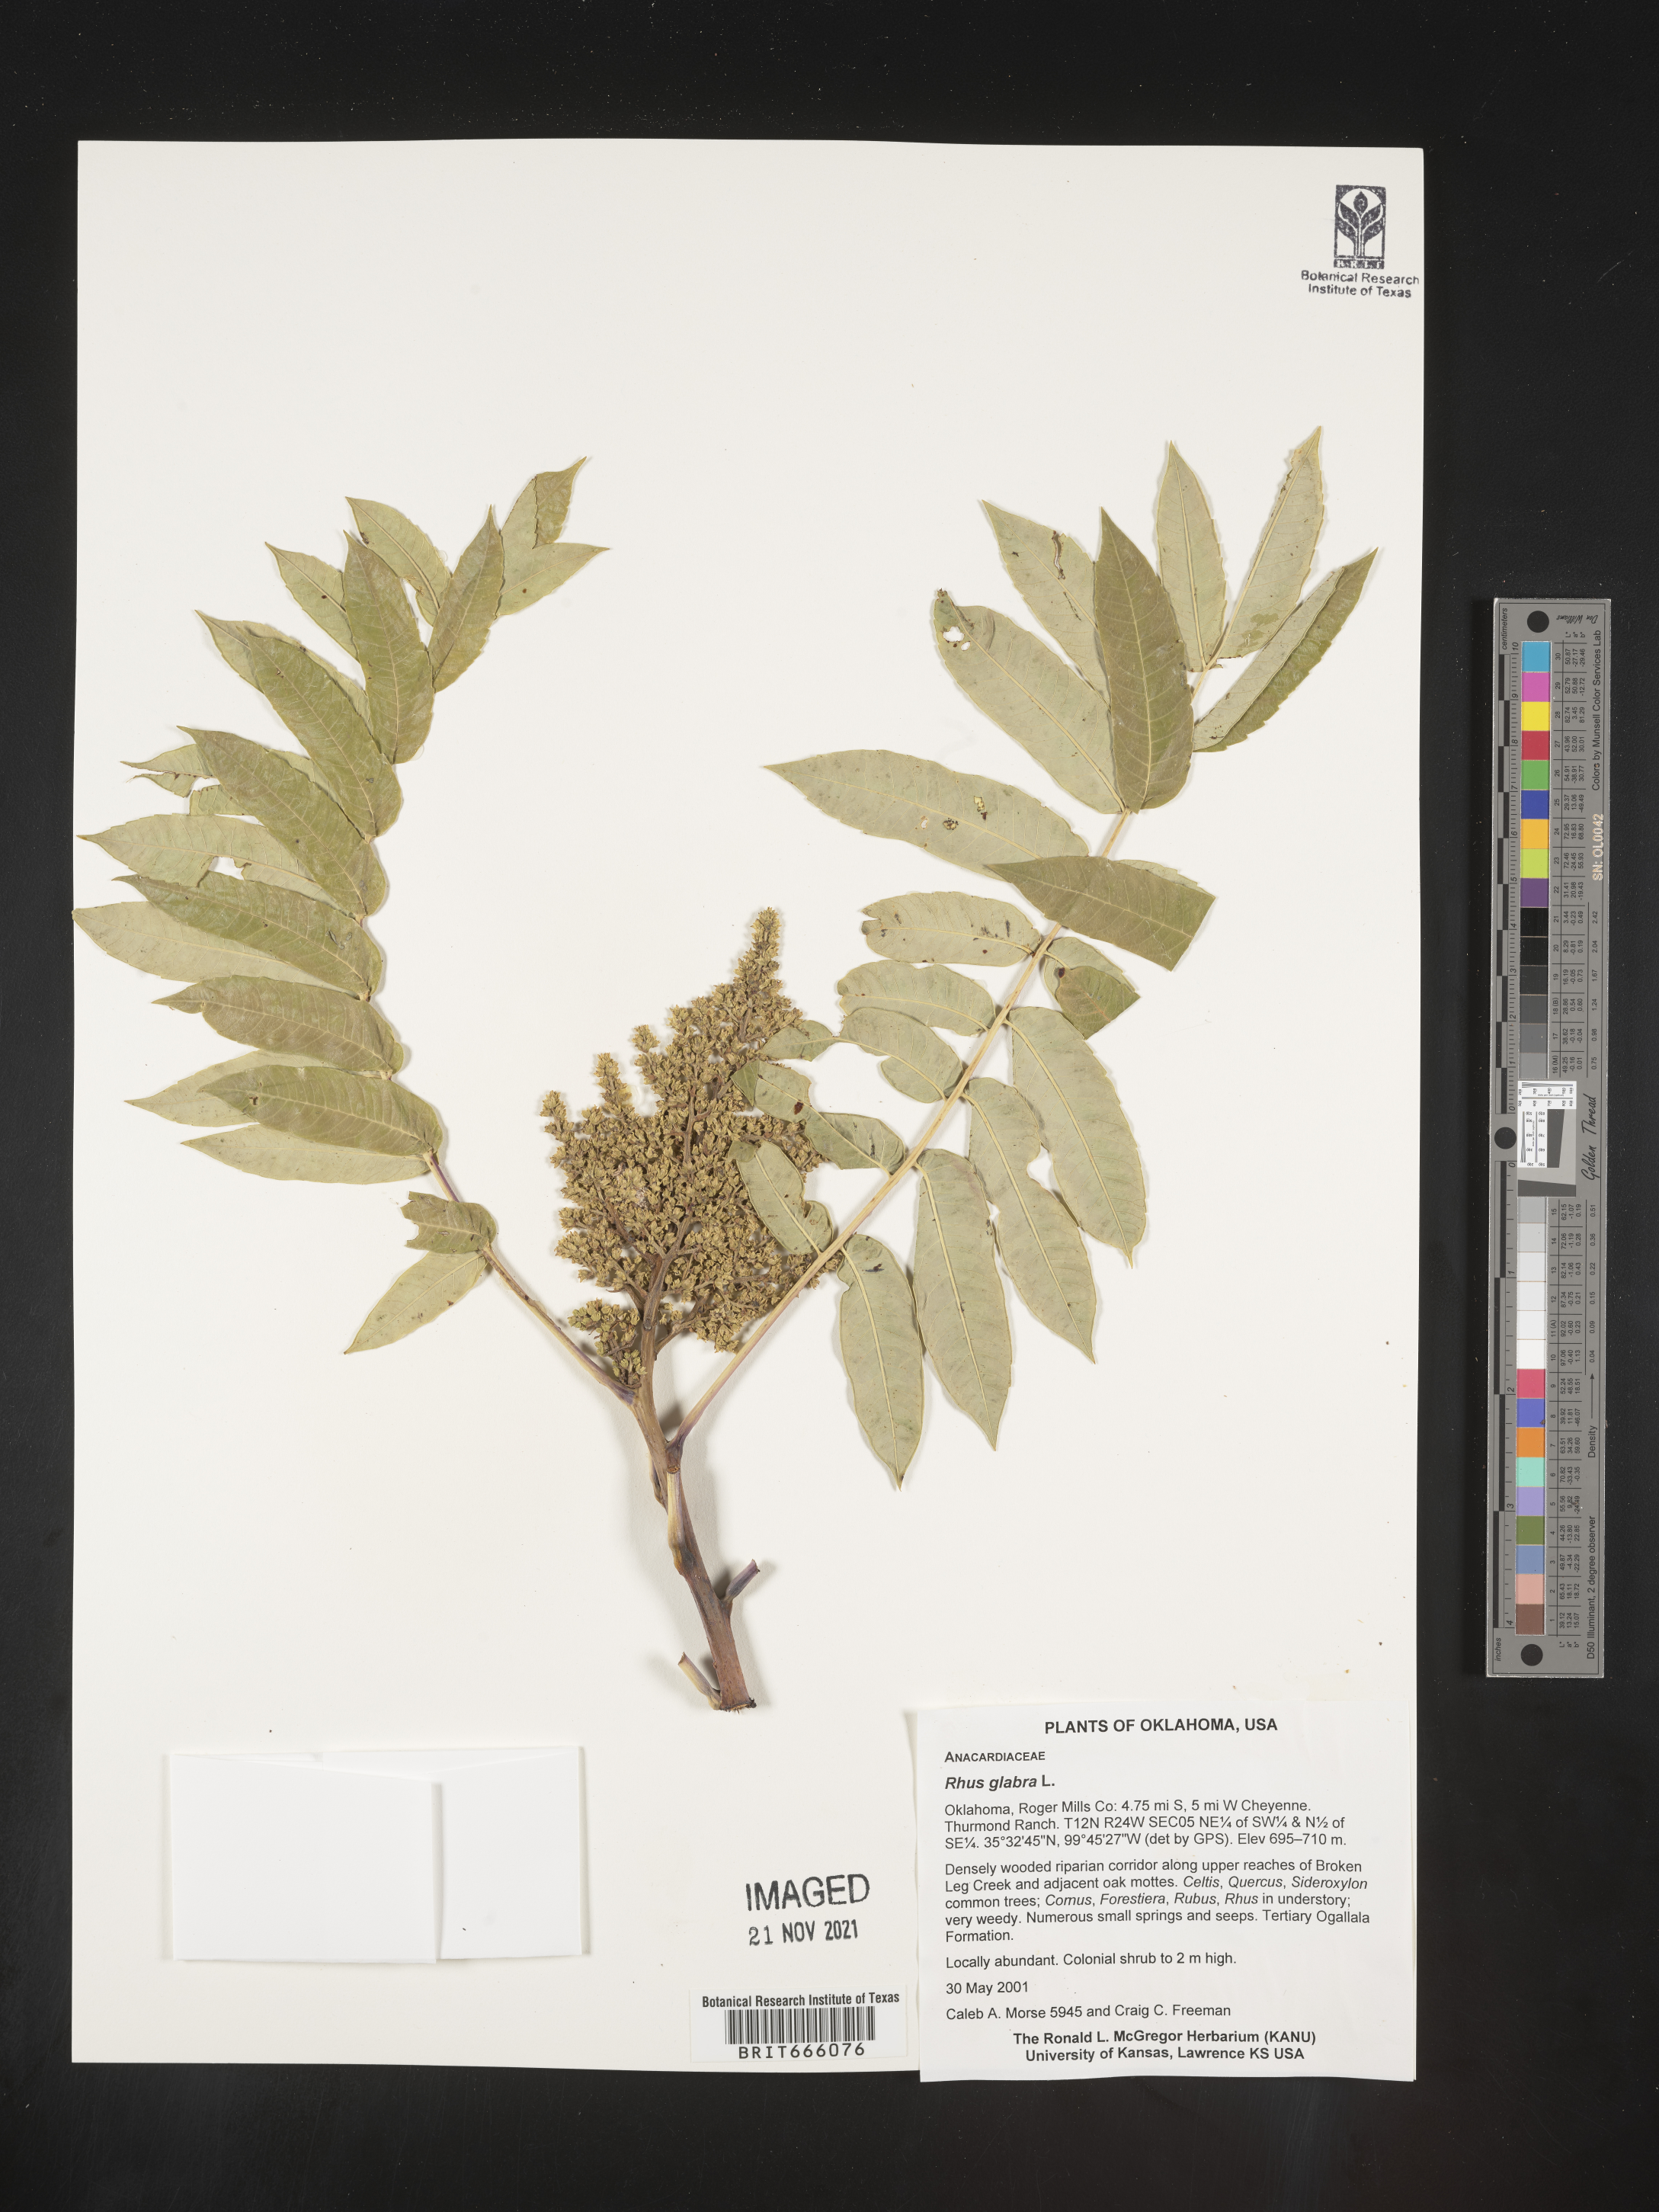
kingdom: Plantae
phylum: Tracheophyta
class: Magnoliopsida
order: Sapindales
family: Anacardiaceae
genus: Rhus
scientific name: Rhus glabra
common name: Scarlet sumac
